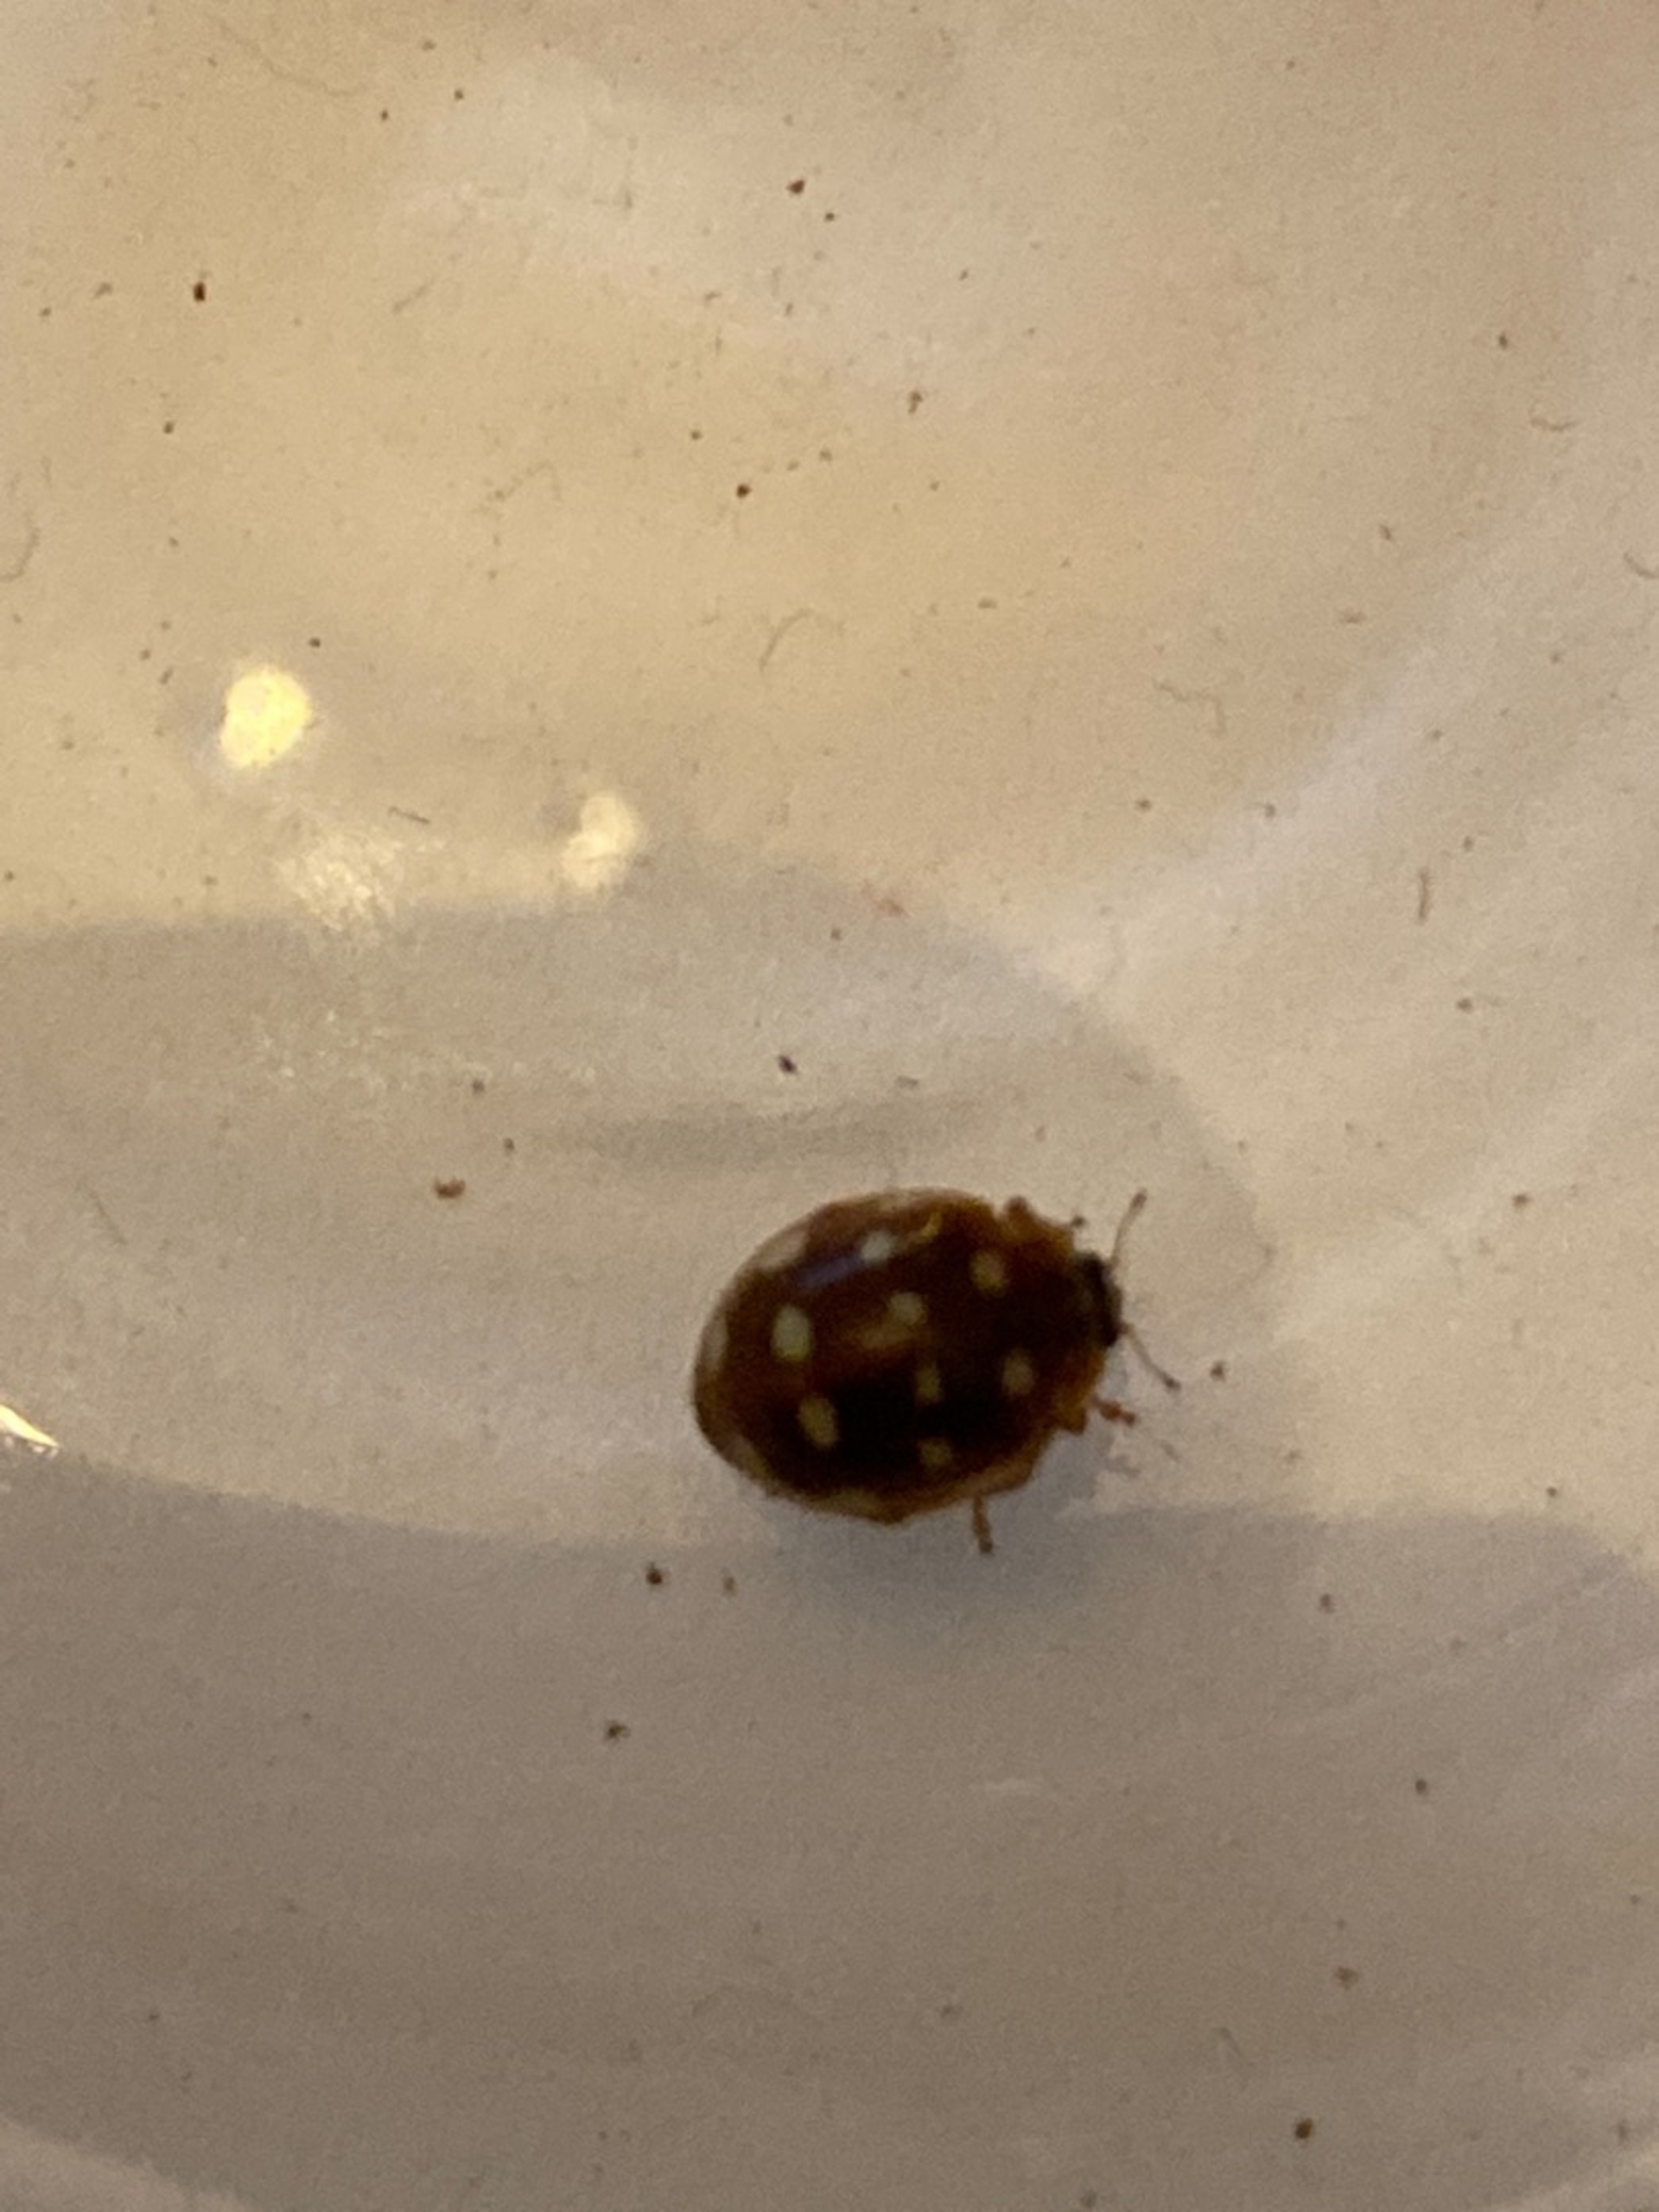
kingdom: Animalia
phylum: Arthropoda
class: Insecta
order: Coleoptera
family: Coccinellidae
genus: Calvia
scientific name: Calvia quatuordecimguttata
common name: Fjortenplettet mariehøne
